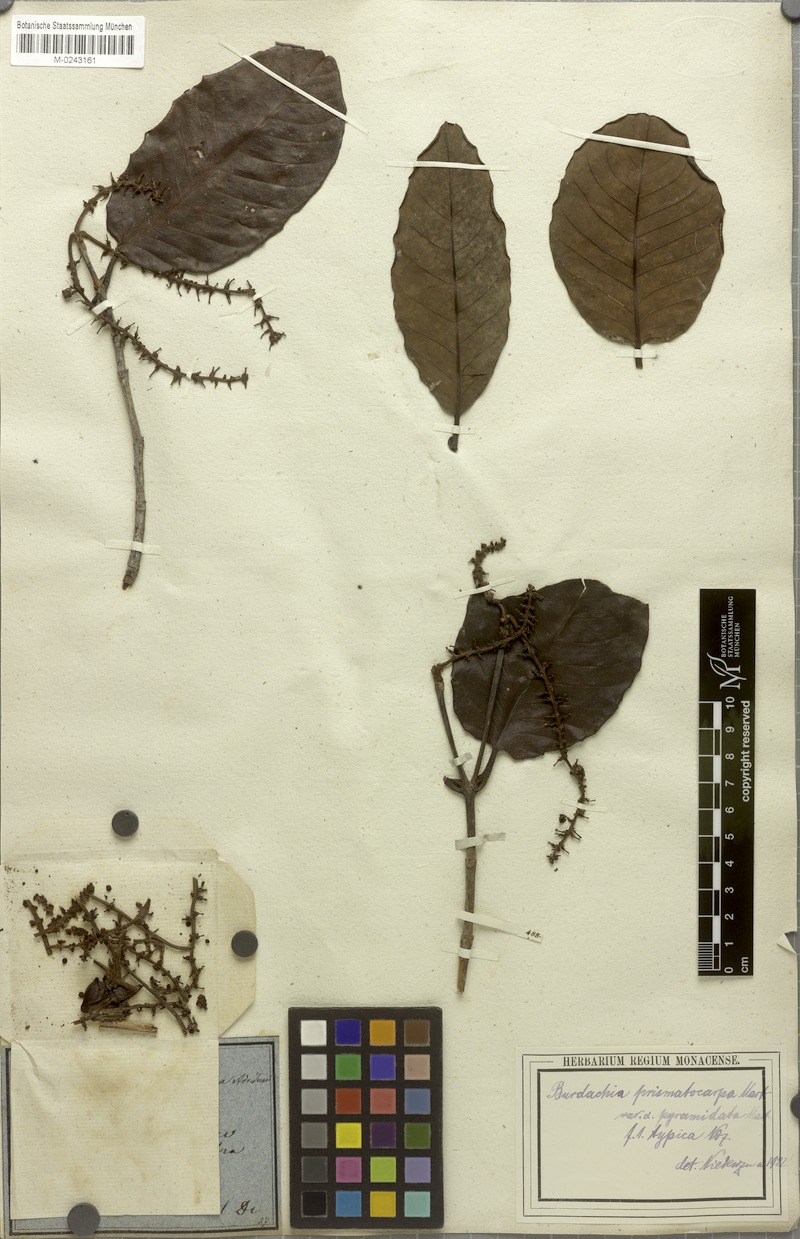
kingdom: Plantae
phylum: Tracheophyta
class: Magnoliopsida
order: Malpighiales
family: Malpighiaceae
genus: Burdachia
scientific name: Burdachia prismatocarpa
